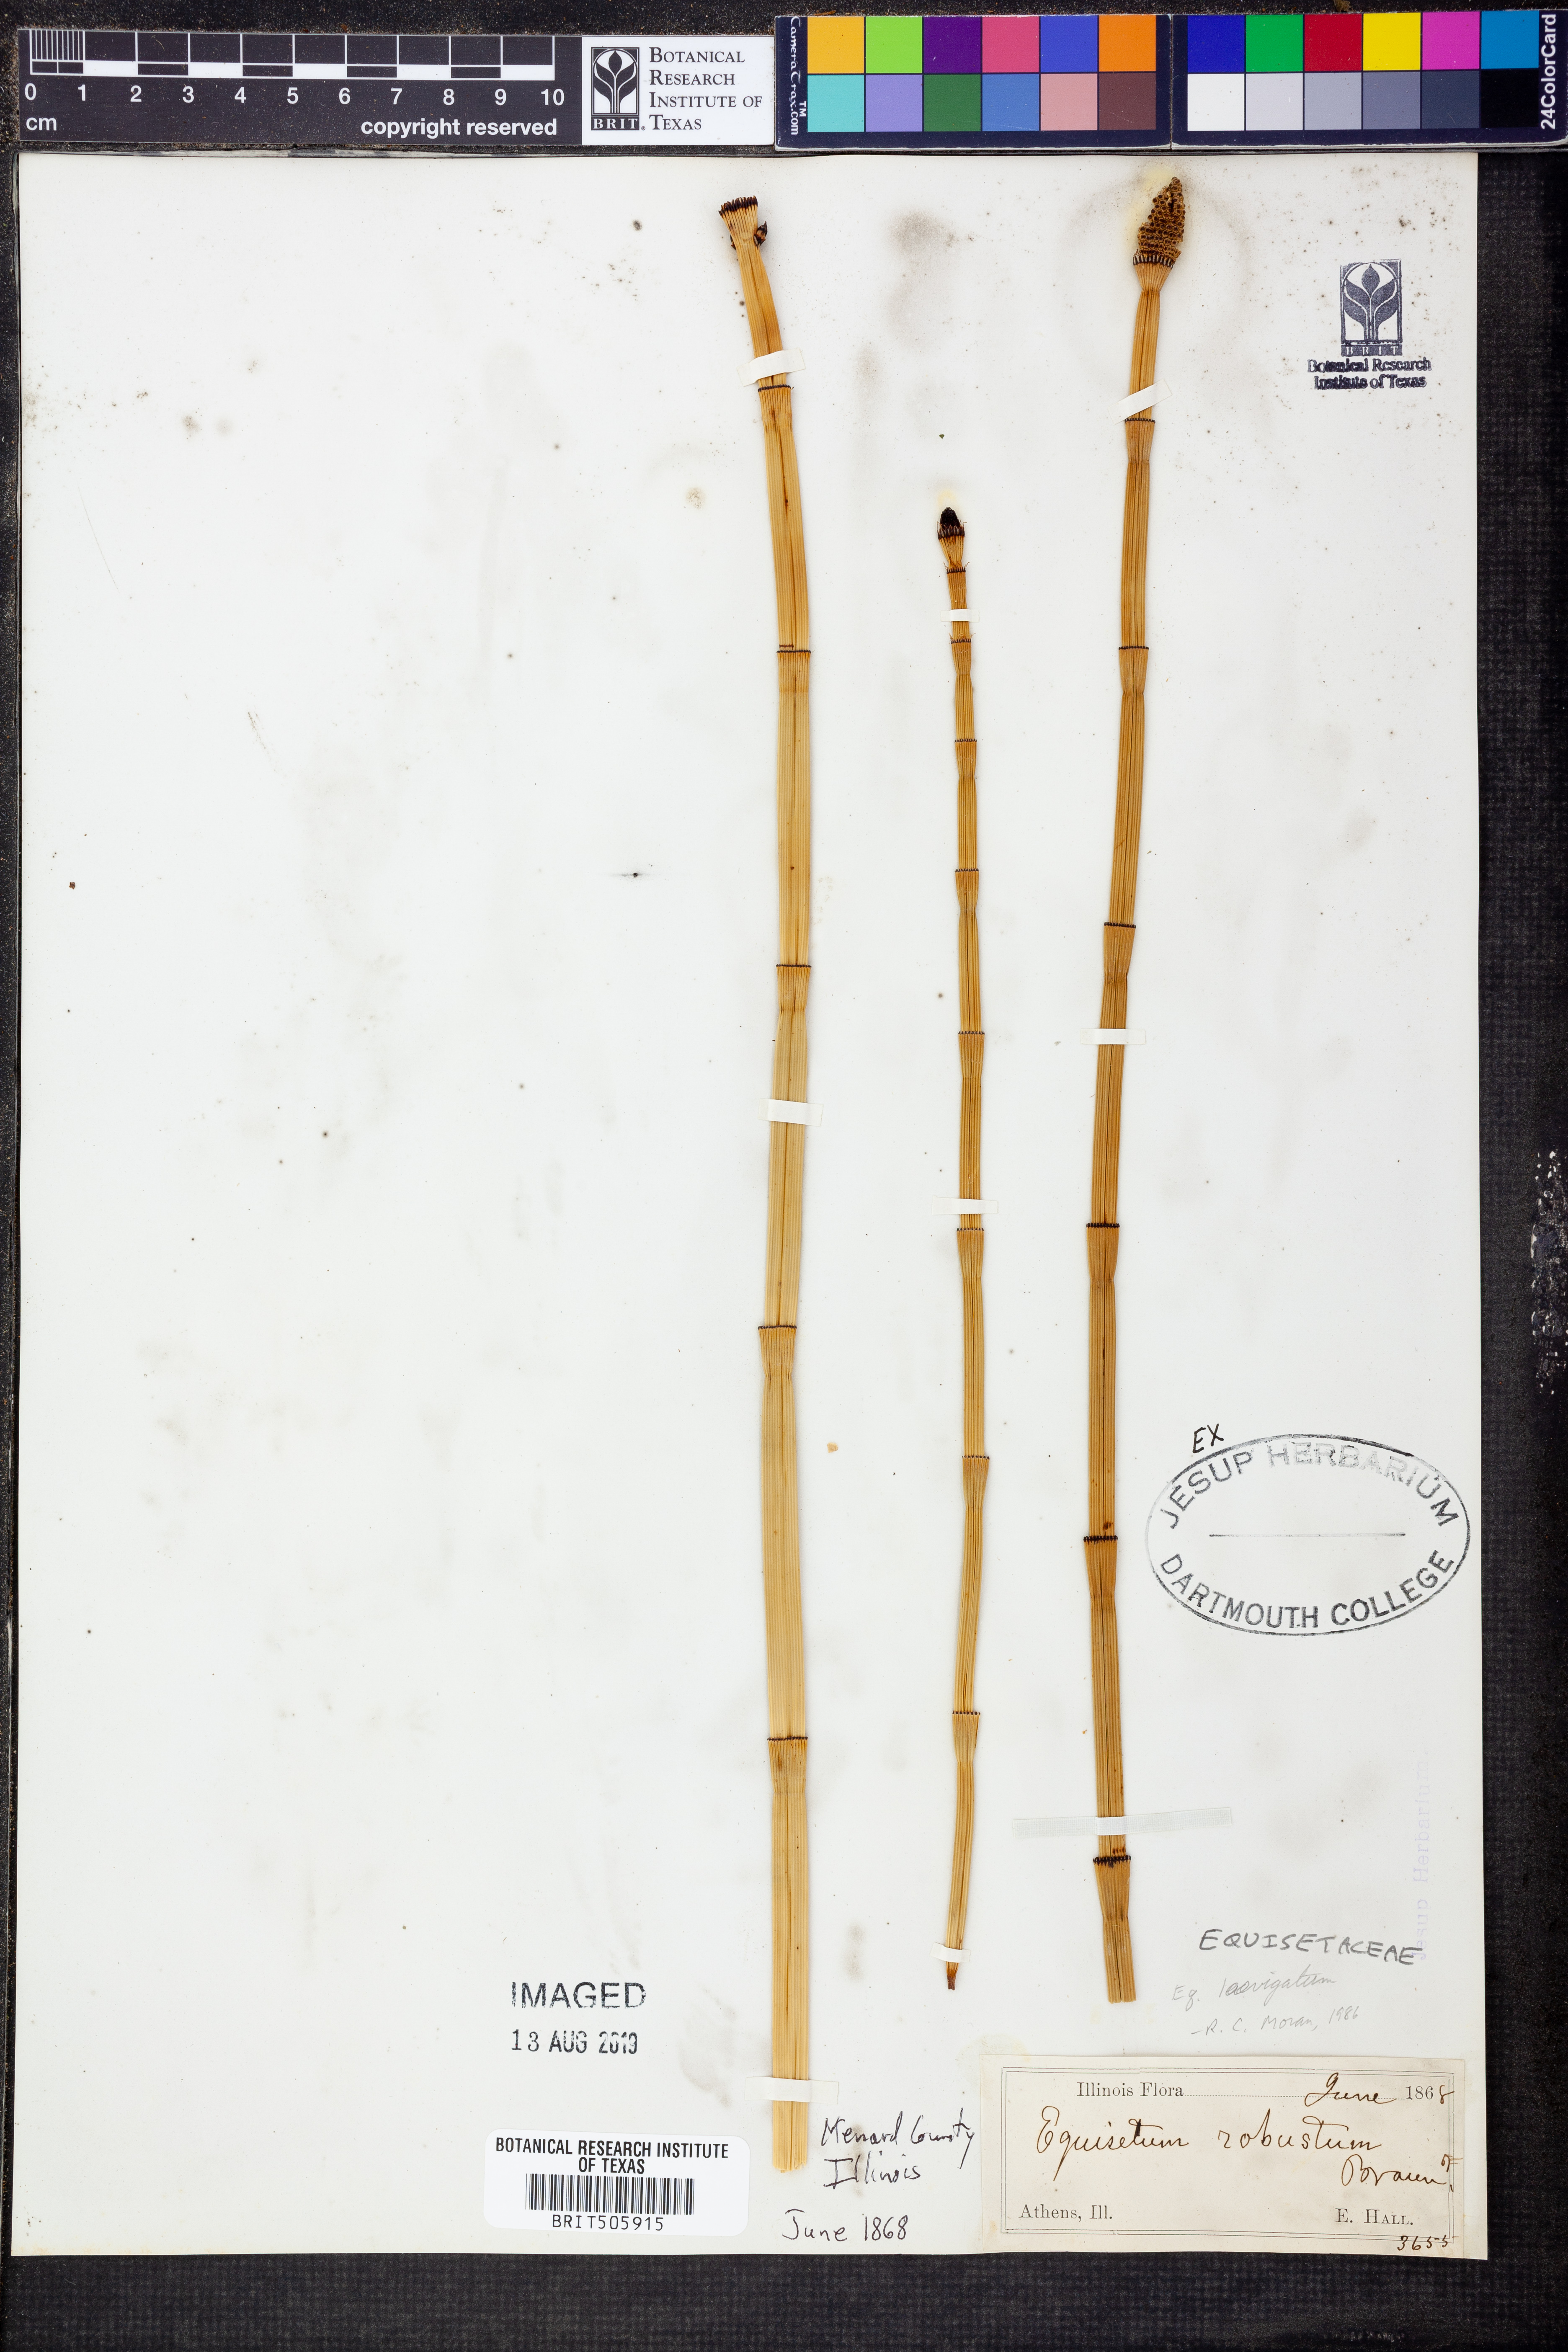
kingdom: Plantae
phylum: Tracheophyta
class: Polypodiopsida
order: Equisetales
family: Equisetaceae
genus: Equisetum
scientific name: Equisetum laevigatum
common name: Smooth scouring-rush
